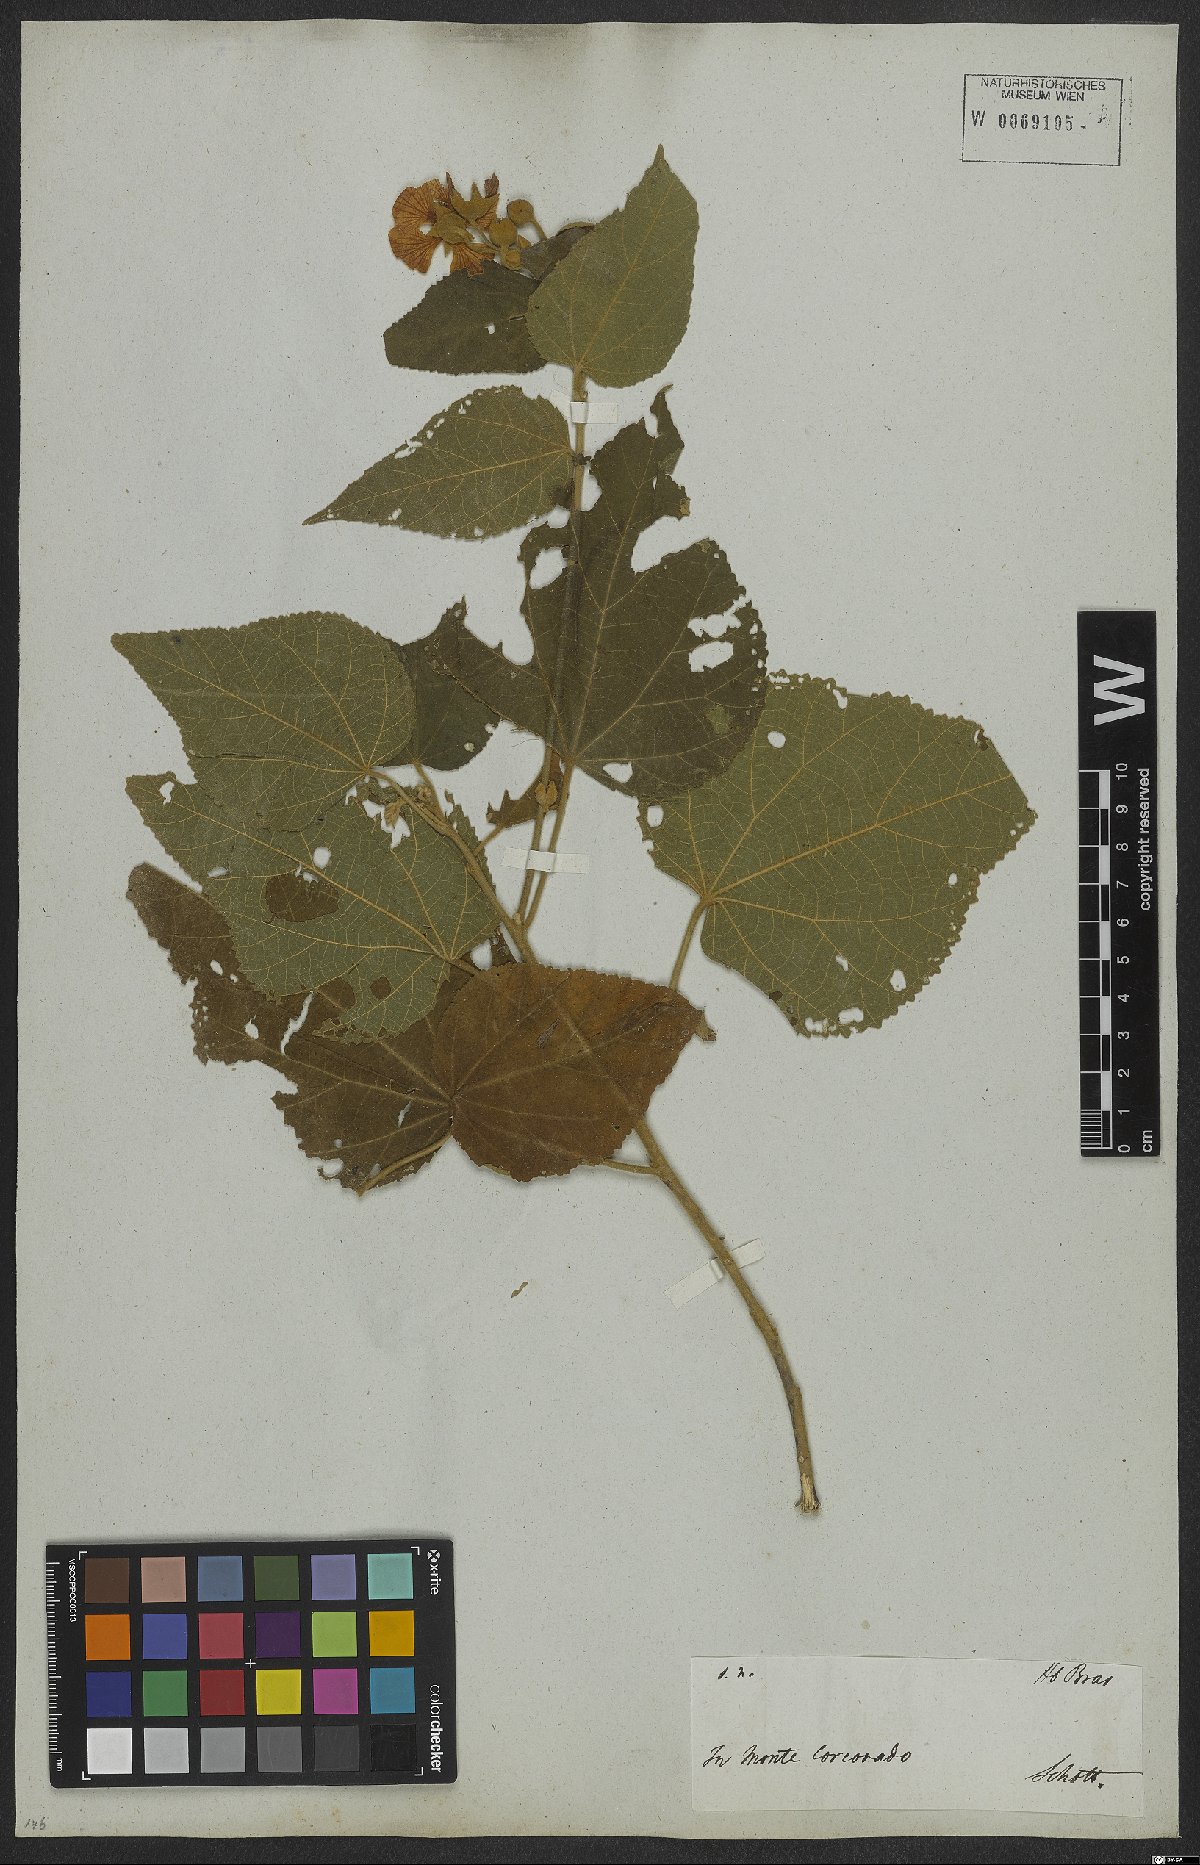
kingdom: Plantae
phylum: Tracheophyta
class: Magnoliopsida
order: Malvales
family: Malvaceae
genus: Bakeridesia
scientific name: Bakeridesia esculenta
